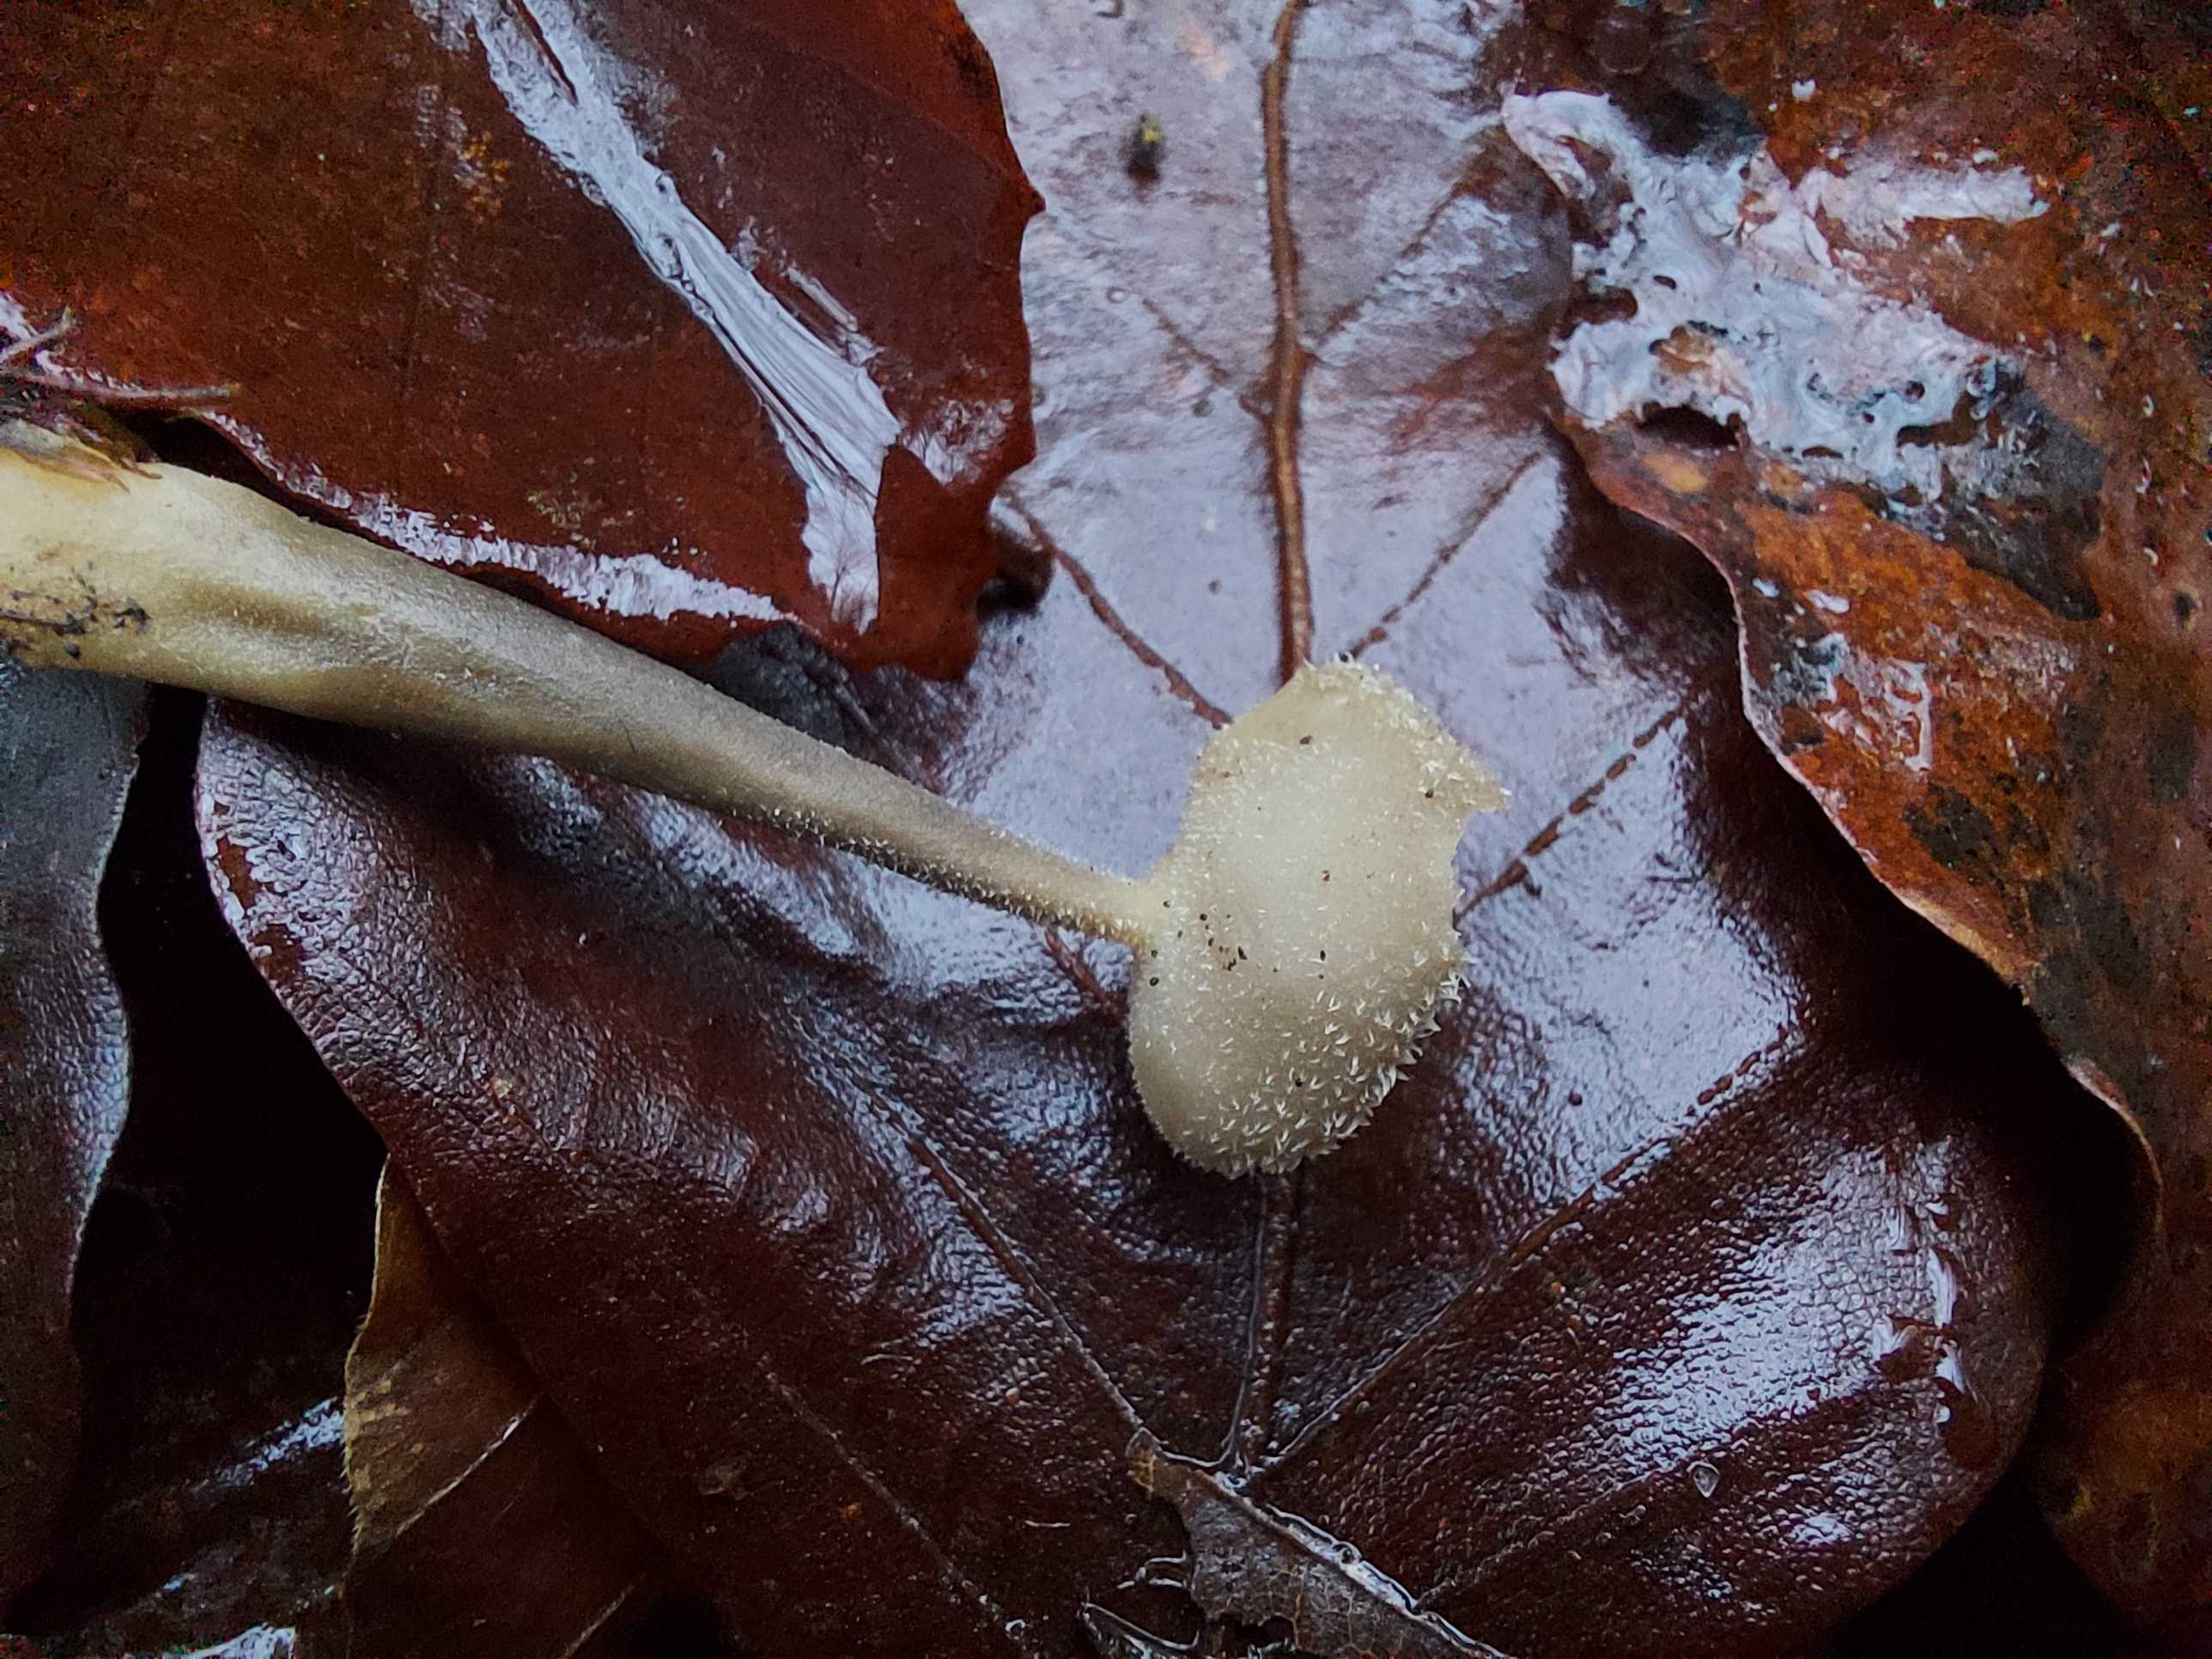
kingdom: Fungi
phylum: Ascomycota
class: Pezizomycetes
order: Pezizales
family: Helvellaceae
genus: Helvella
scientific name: Helvella
